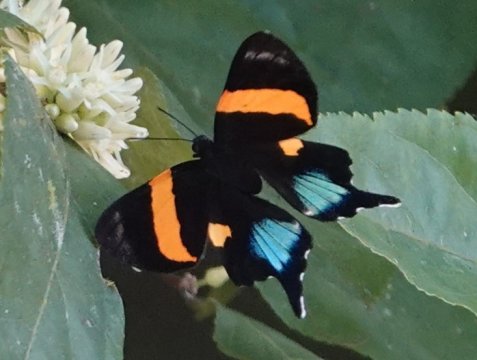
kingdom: Animalia
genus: Ancyluris
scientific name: Ancyluris inca
